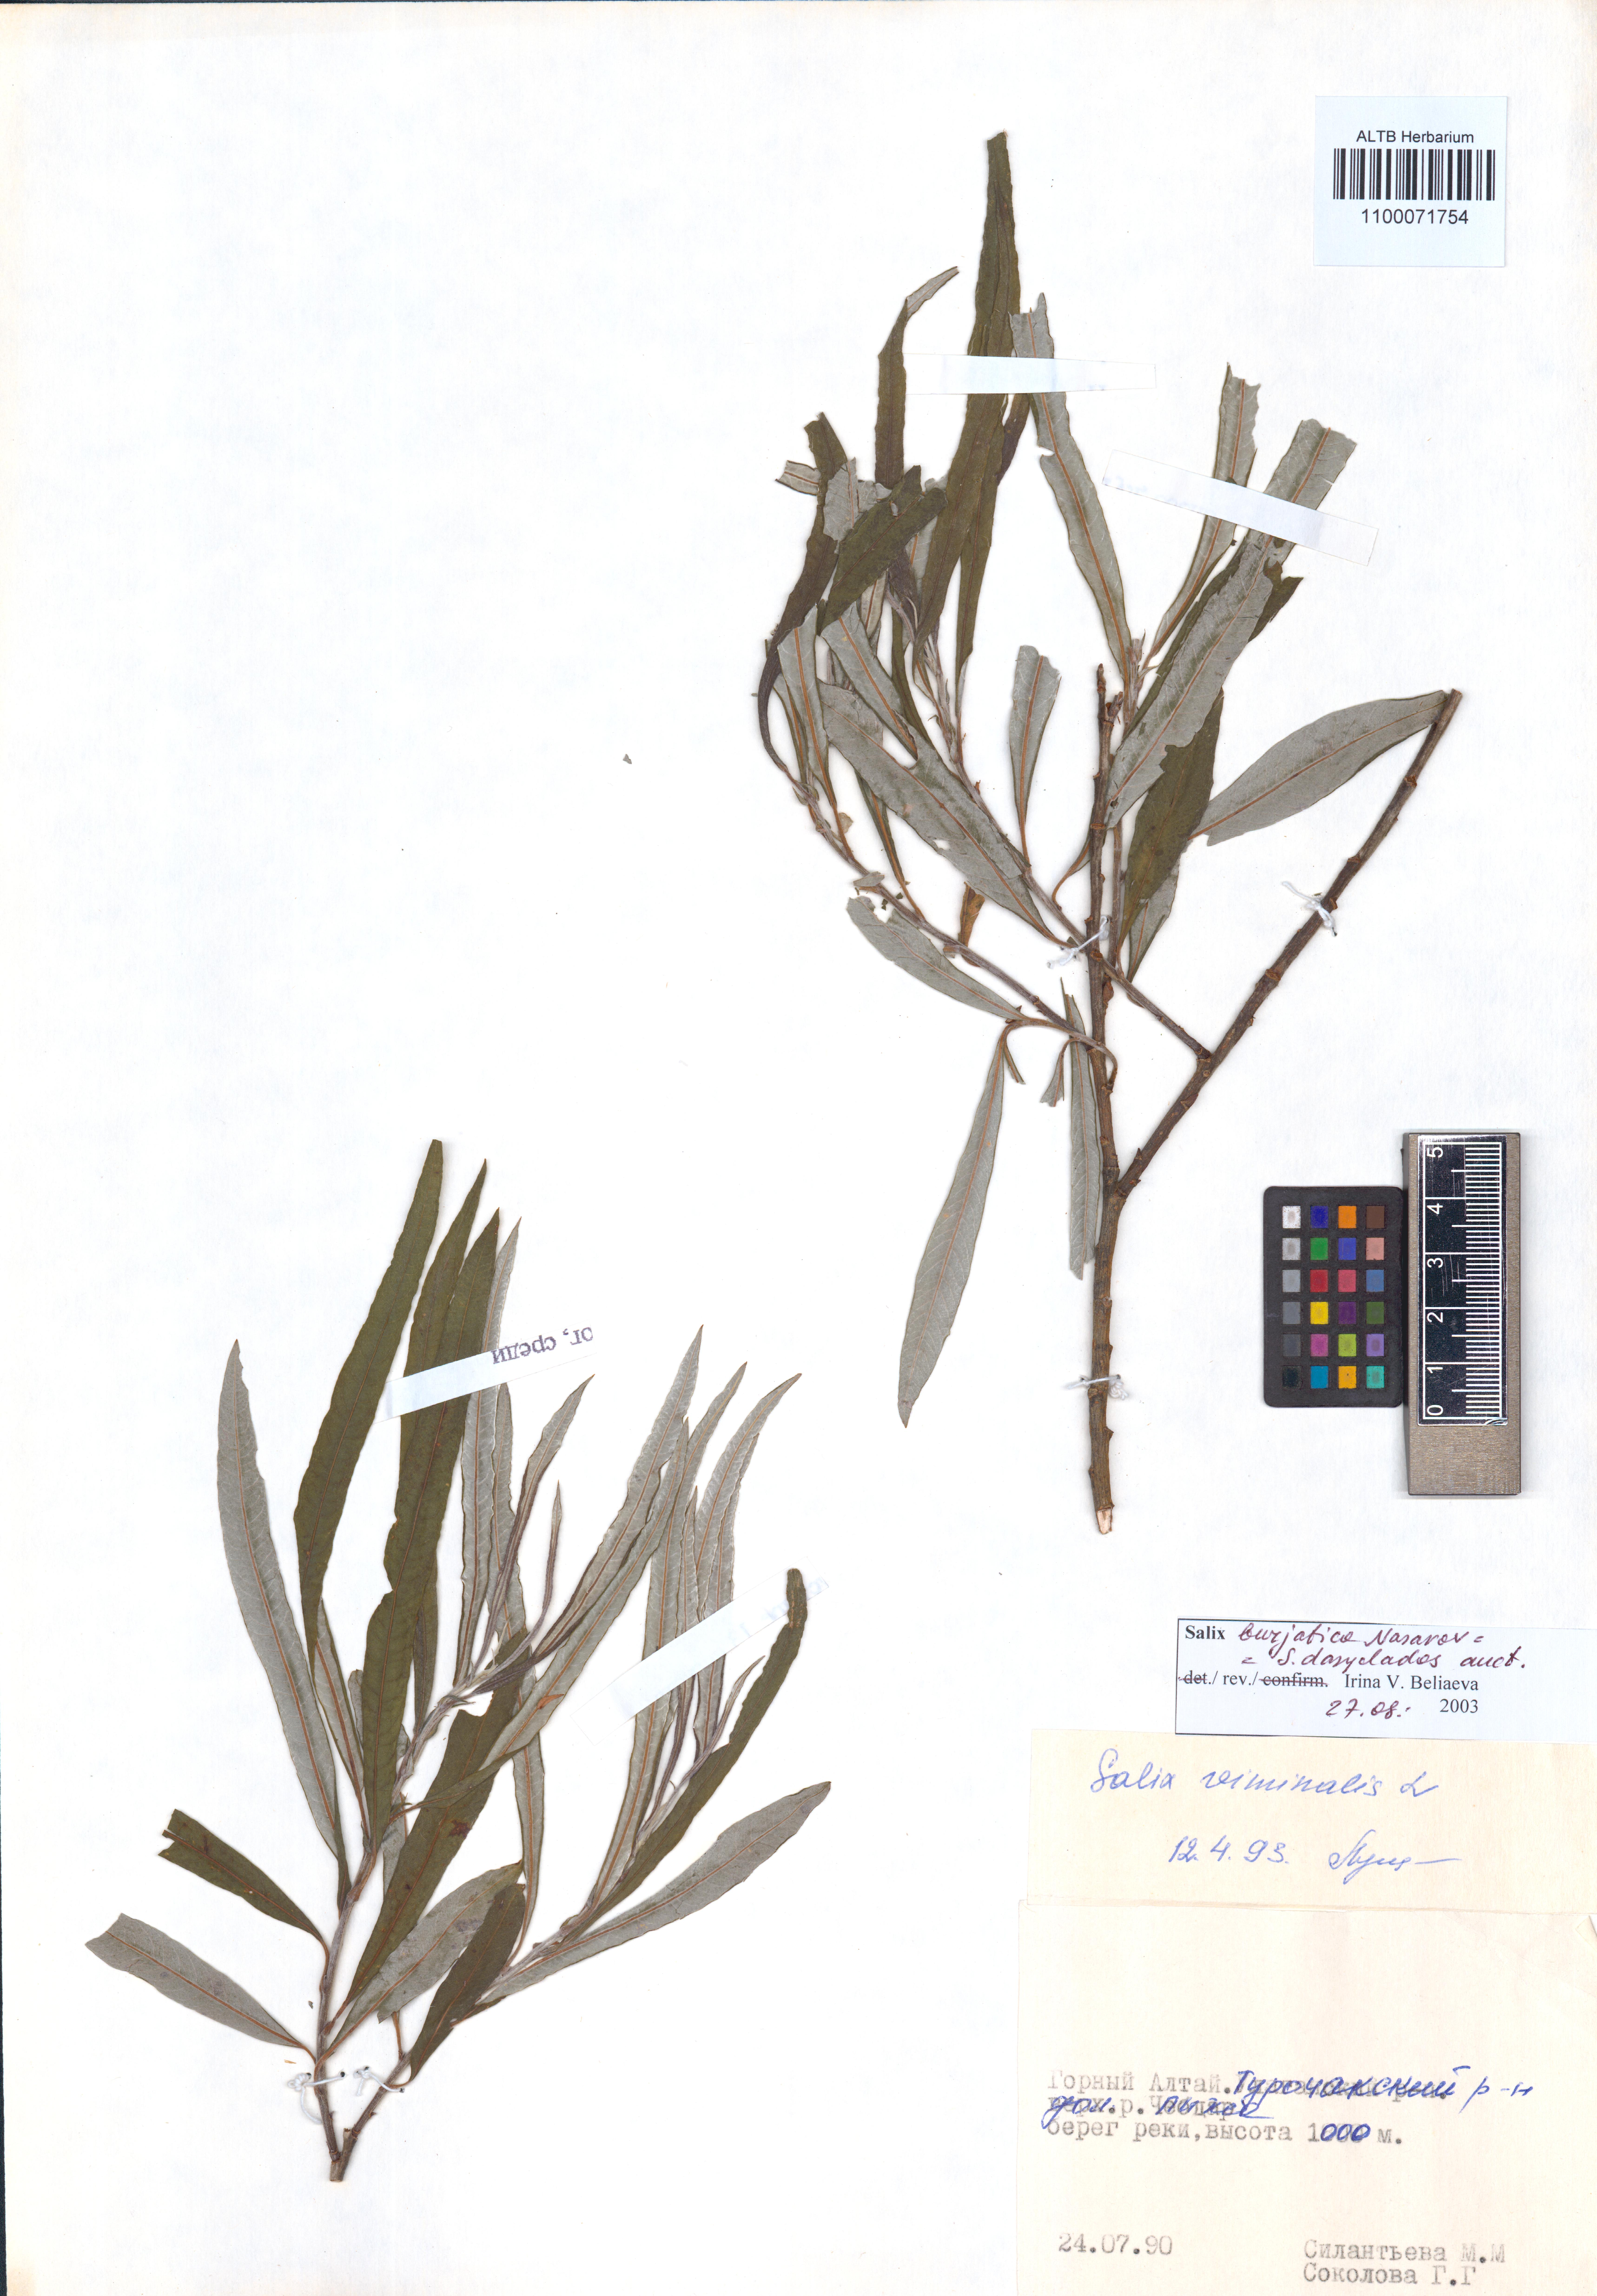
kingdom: Plantae
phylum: Tracheophyta
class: Magnoliopsida
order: Malpighiales
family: Salicaceae
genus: Salix
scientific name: Salix gmelinii
